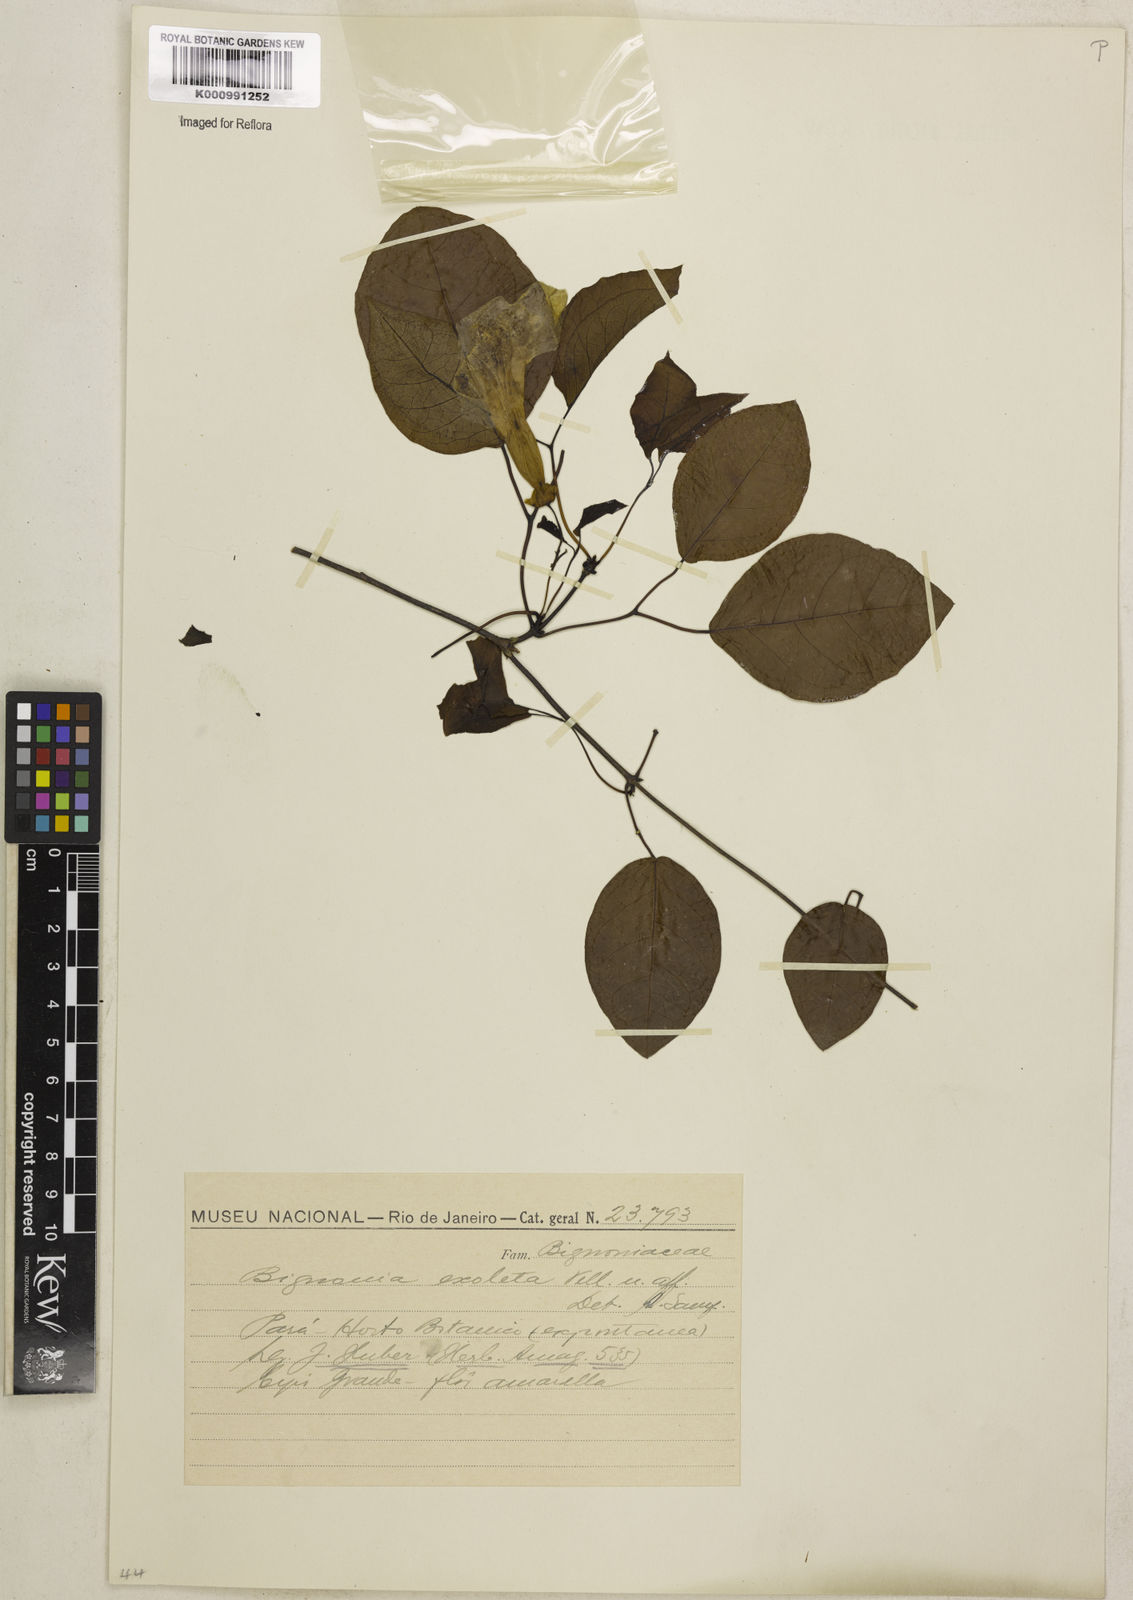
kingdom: Plantae
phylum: Tracheophyta
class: Magnoliopsida
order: Lamiales
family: Bignoniaceae
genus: Dolichandra
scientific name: Dolichandra unguis-cati
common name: Catclaw vine
